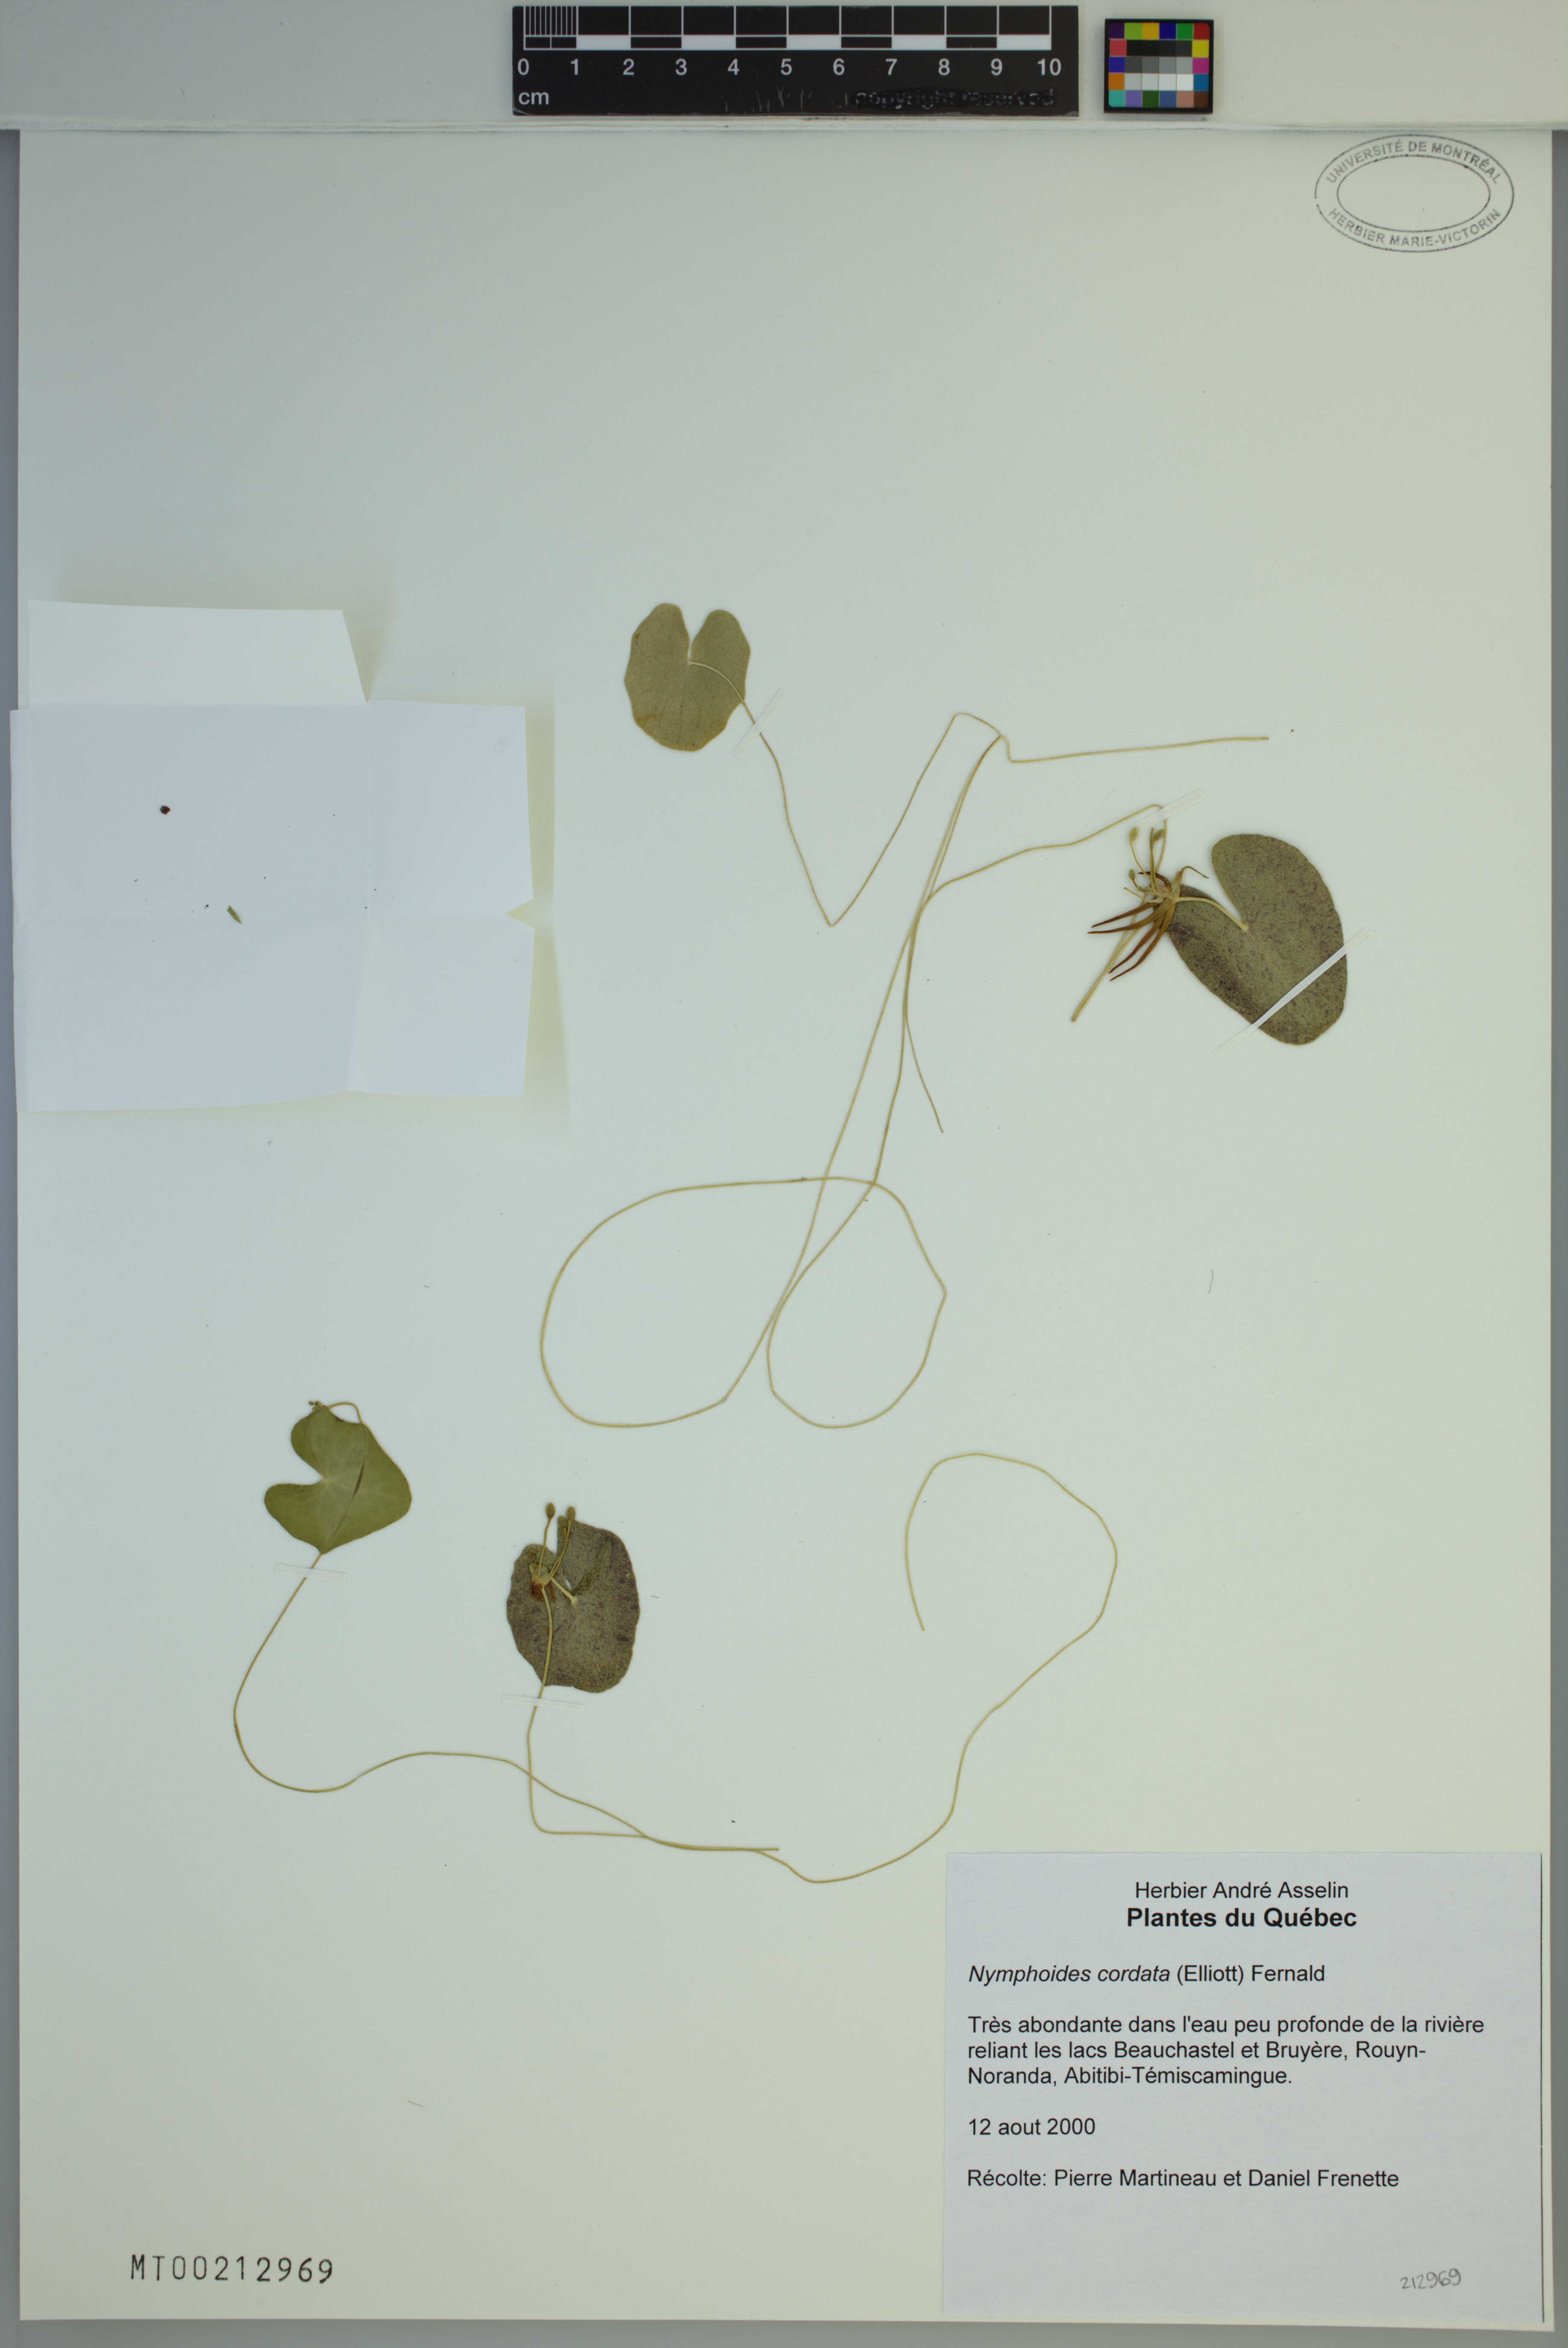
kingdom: Plantae
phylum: Tracheophyta
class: Magnoliopsida
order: Asterales
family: Menyanthaceae
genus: Nymphoides
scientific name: Nymphoides cordata
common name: Eight-angled floatingheart
